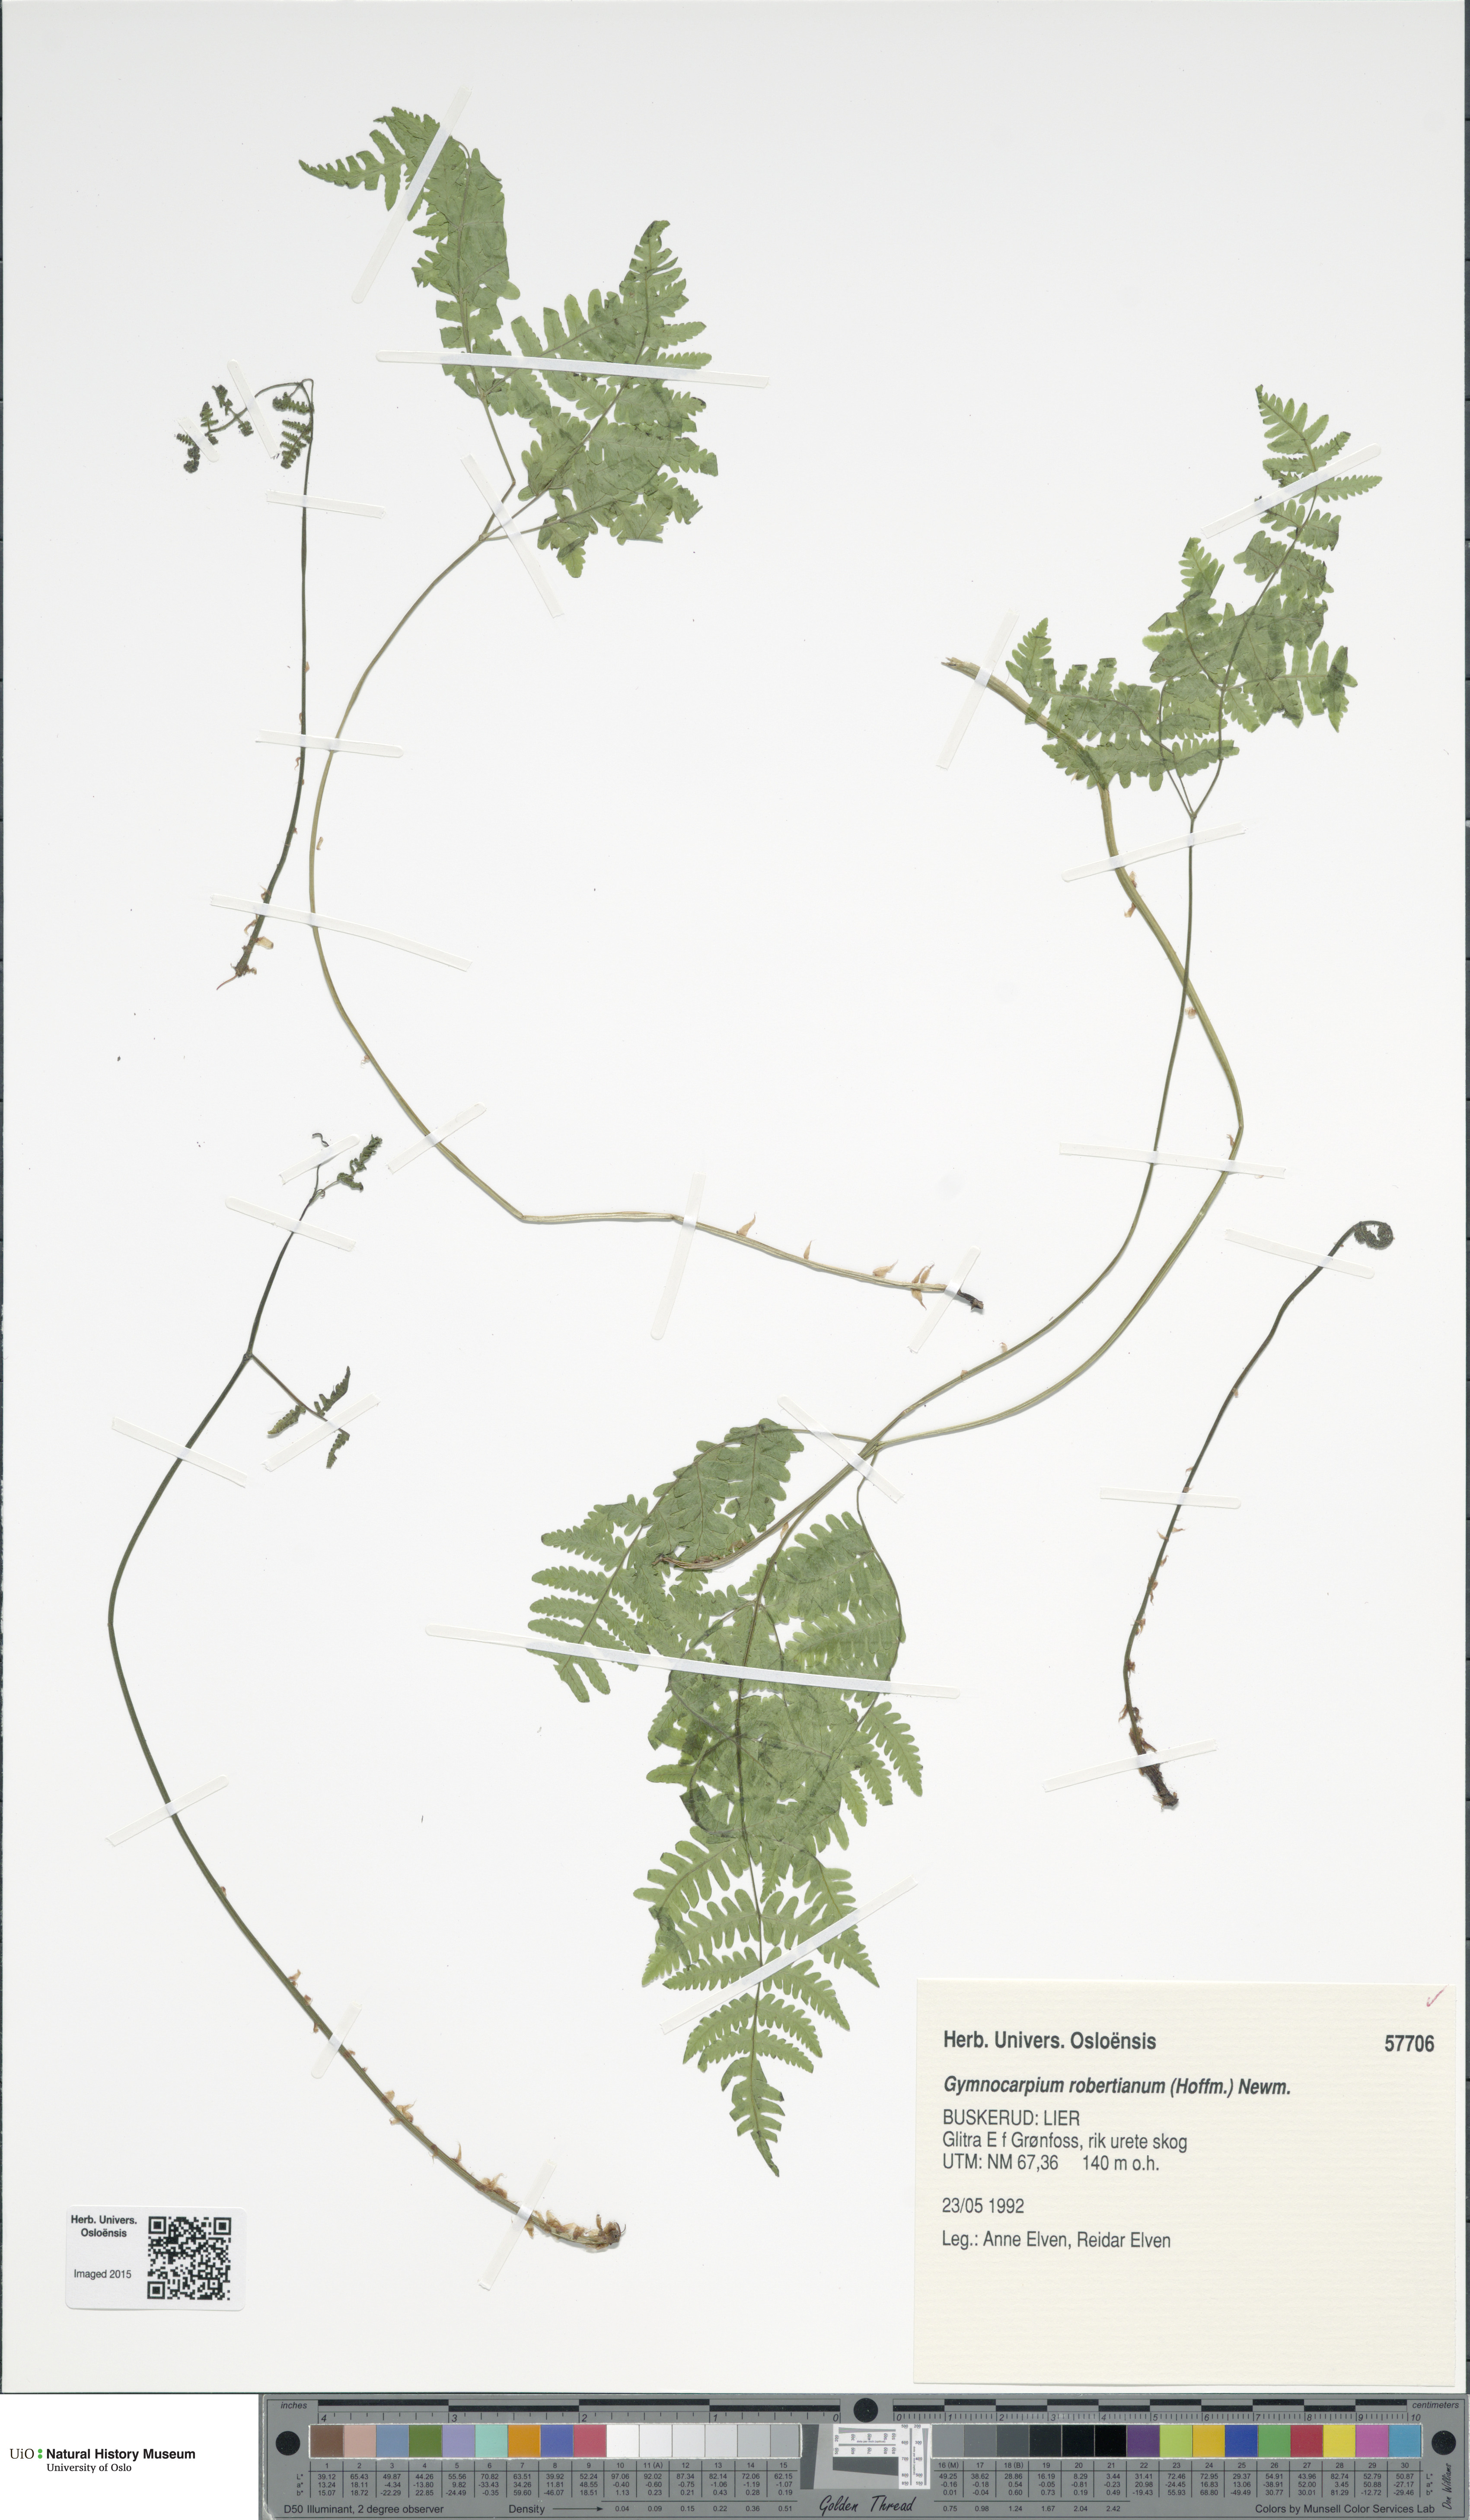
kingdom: Plantae
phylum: Tracheophyta
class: Polypodiopsida
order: Polypodiales
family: Cystopteridaceae
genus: Gymnocarpium
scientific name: Gymnocarpium robertianum
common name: Limestone fern
